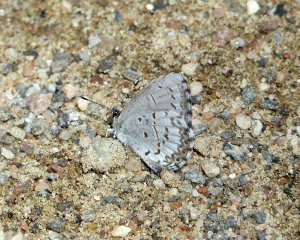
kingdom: Animalia
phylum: Arthropoda
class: Insecta
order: Lepidoptera
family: Lycaenidae
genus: Cyaniris
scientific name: Cyaniris neglecta
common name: Summer Azure
